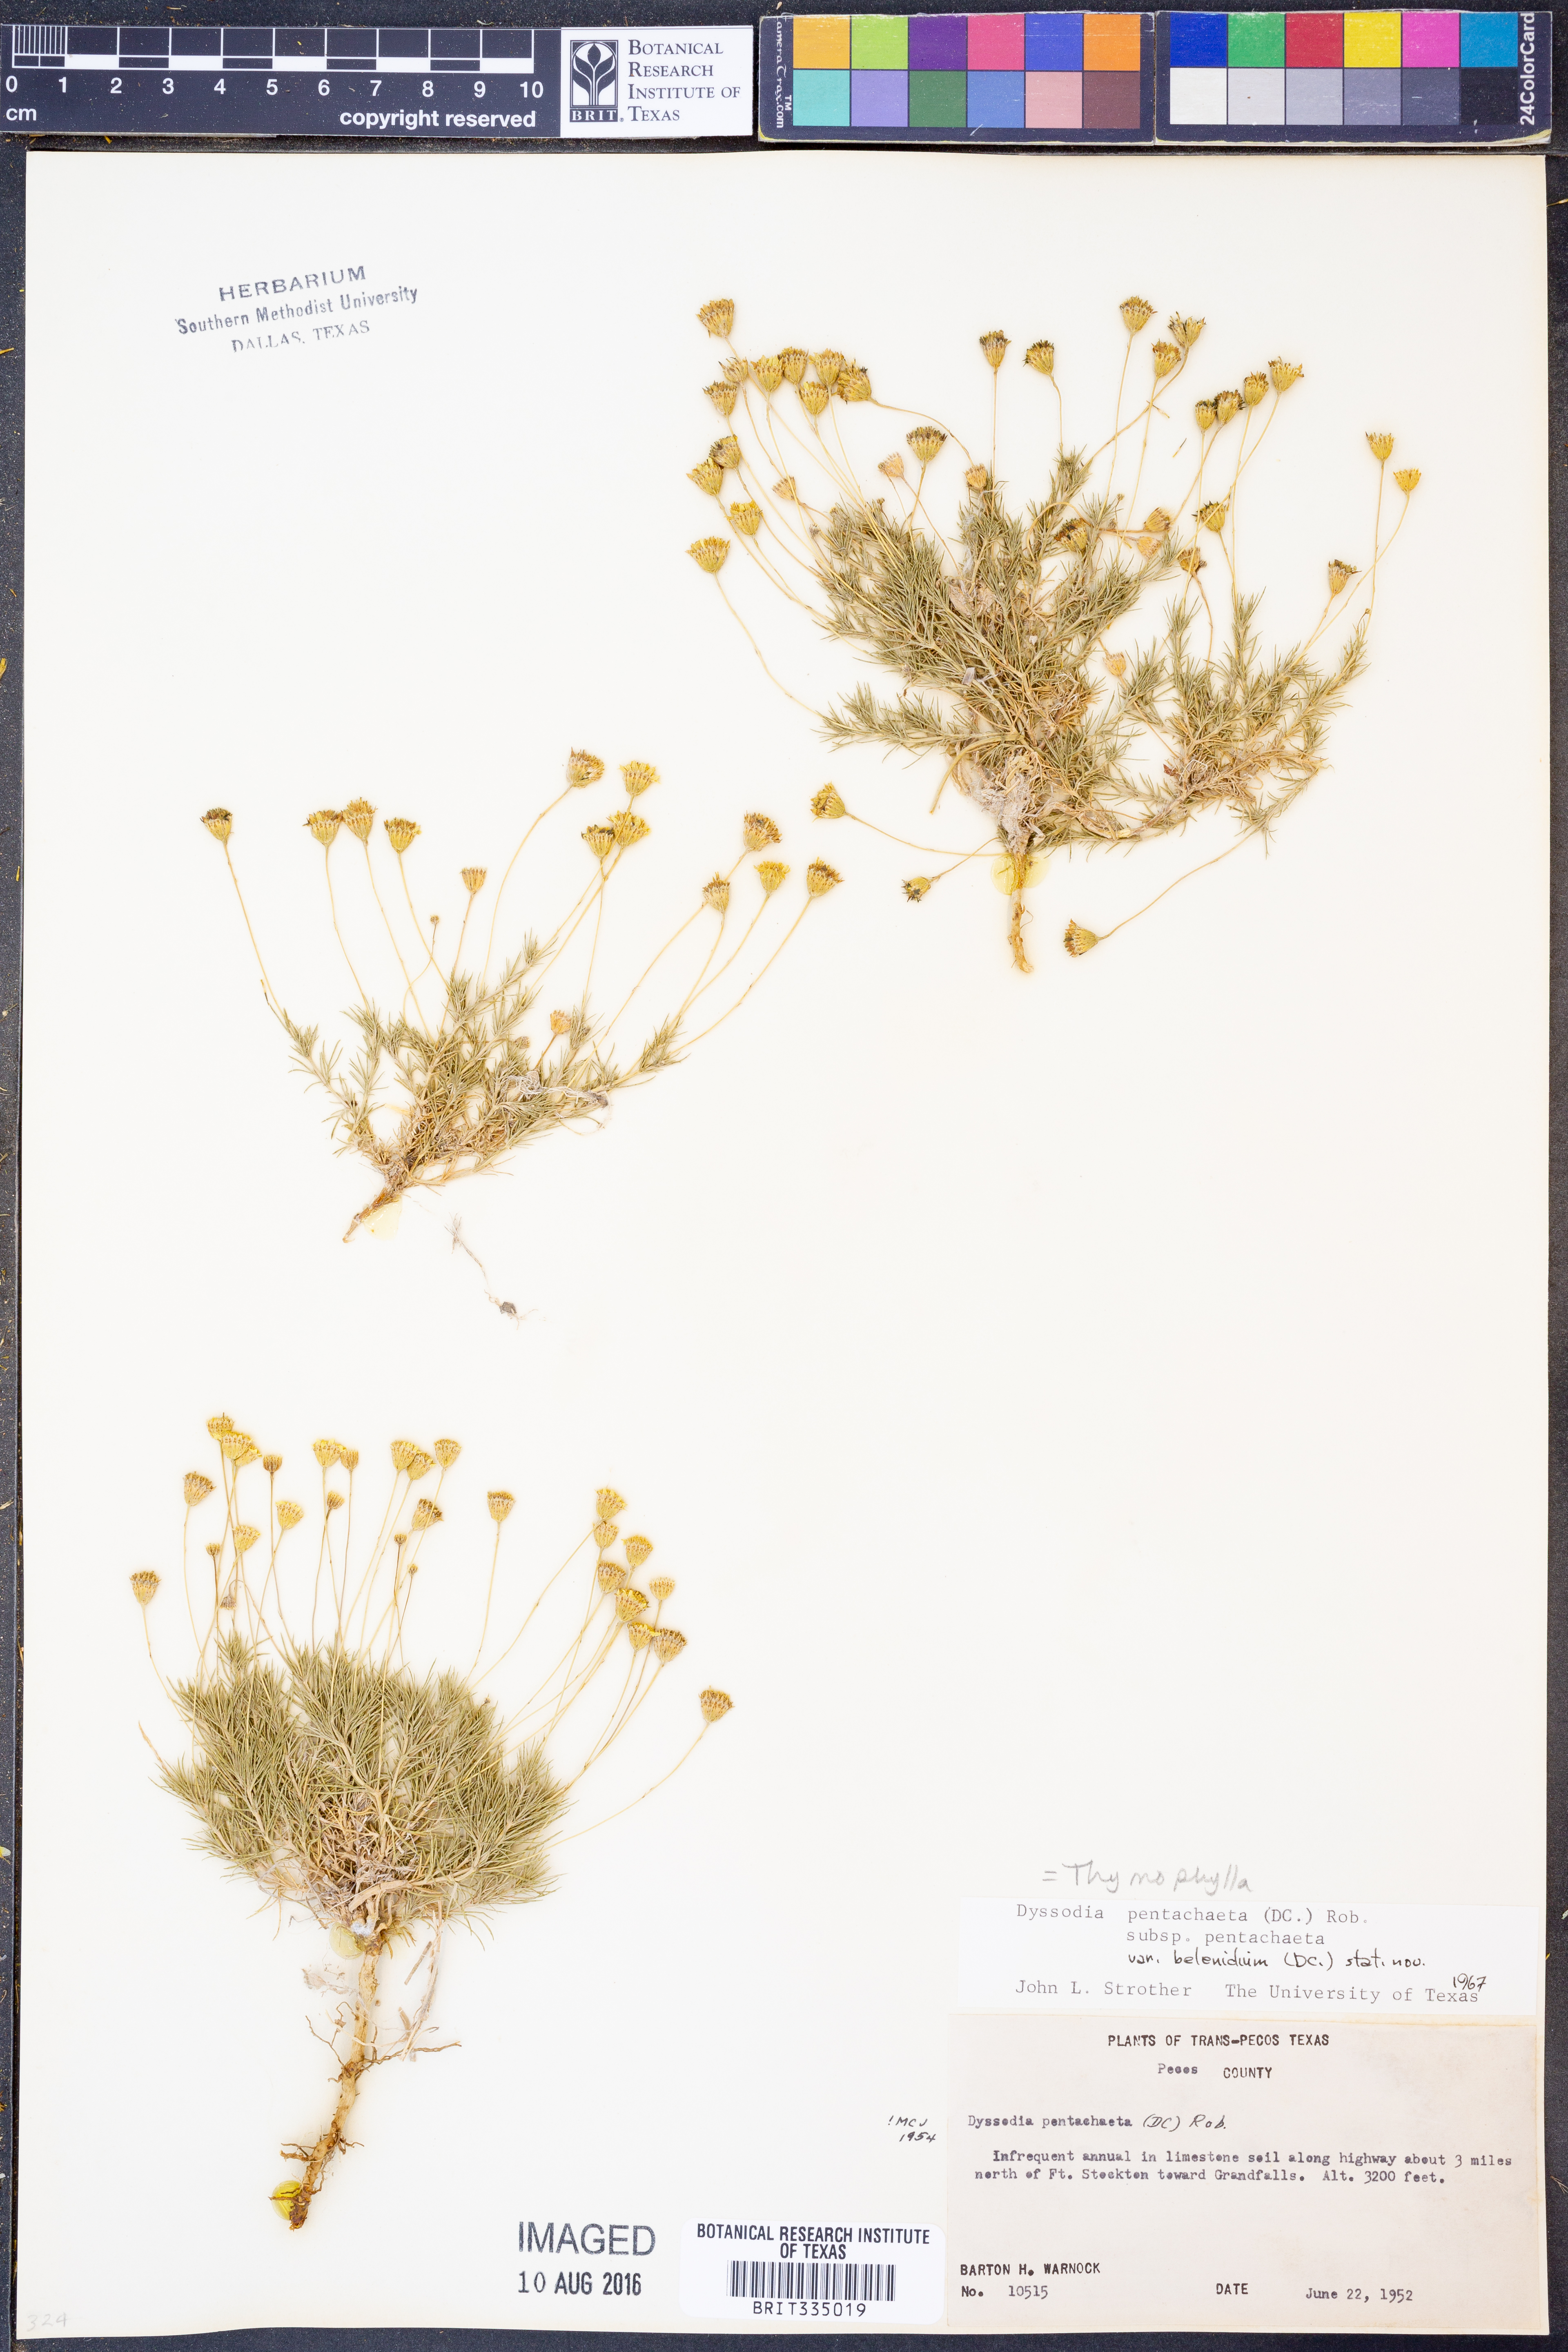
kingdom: Plantae
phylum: Tracheophyta
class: Magnoliopsida
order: Asterales
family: Asteraceae
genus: Thymophylla
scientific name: Thymophylla pentachaeta
